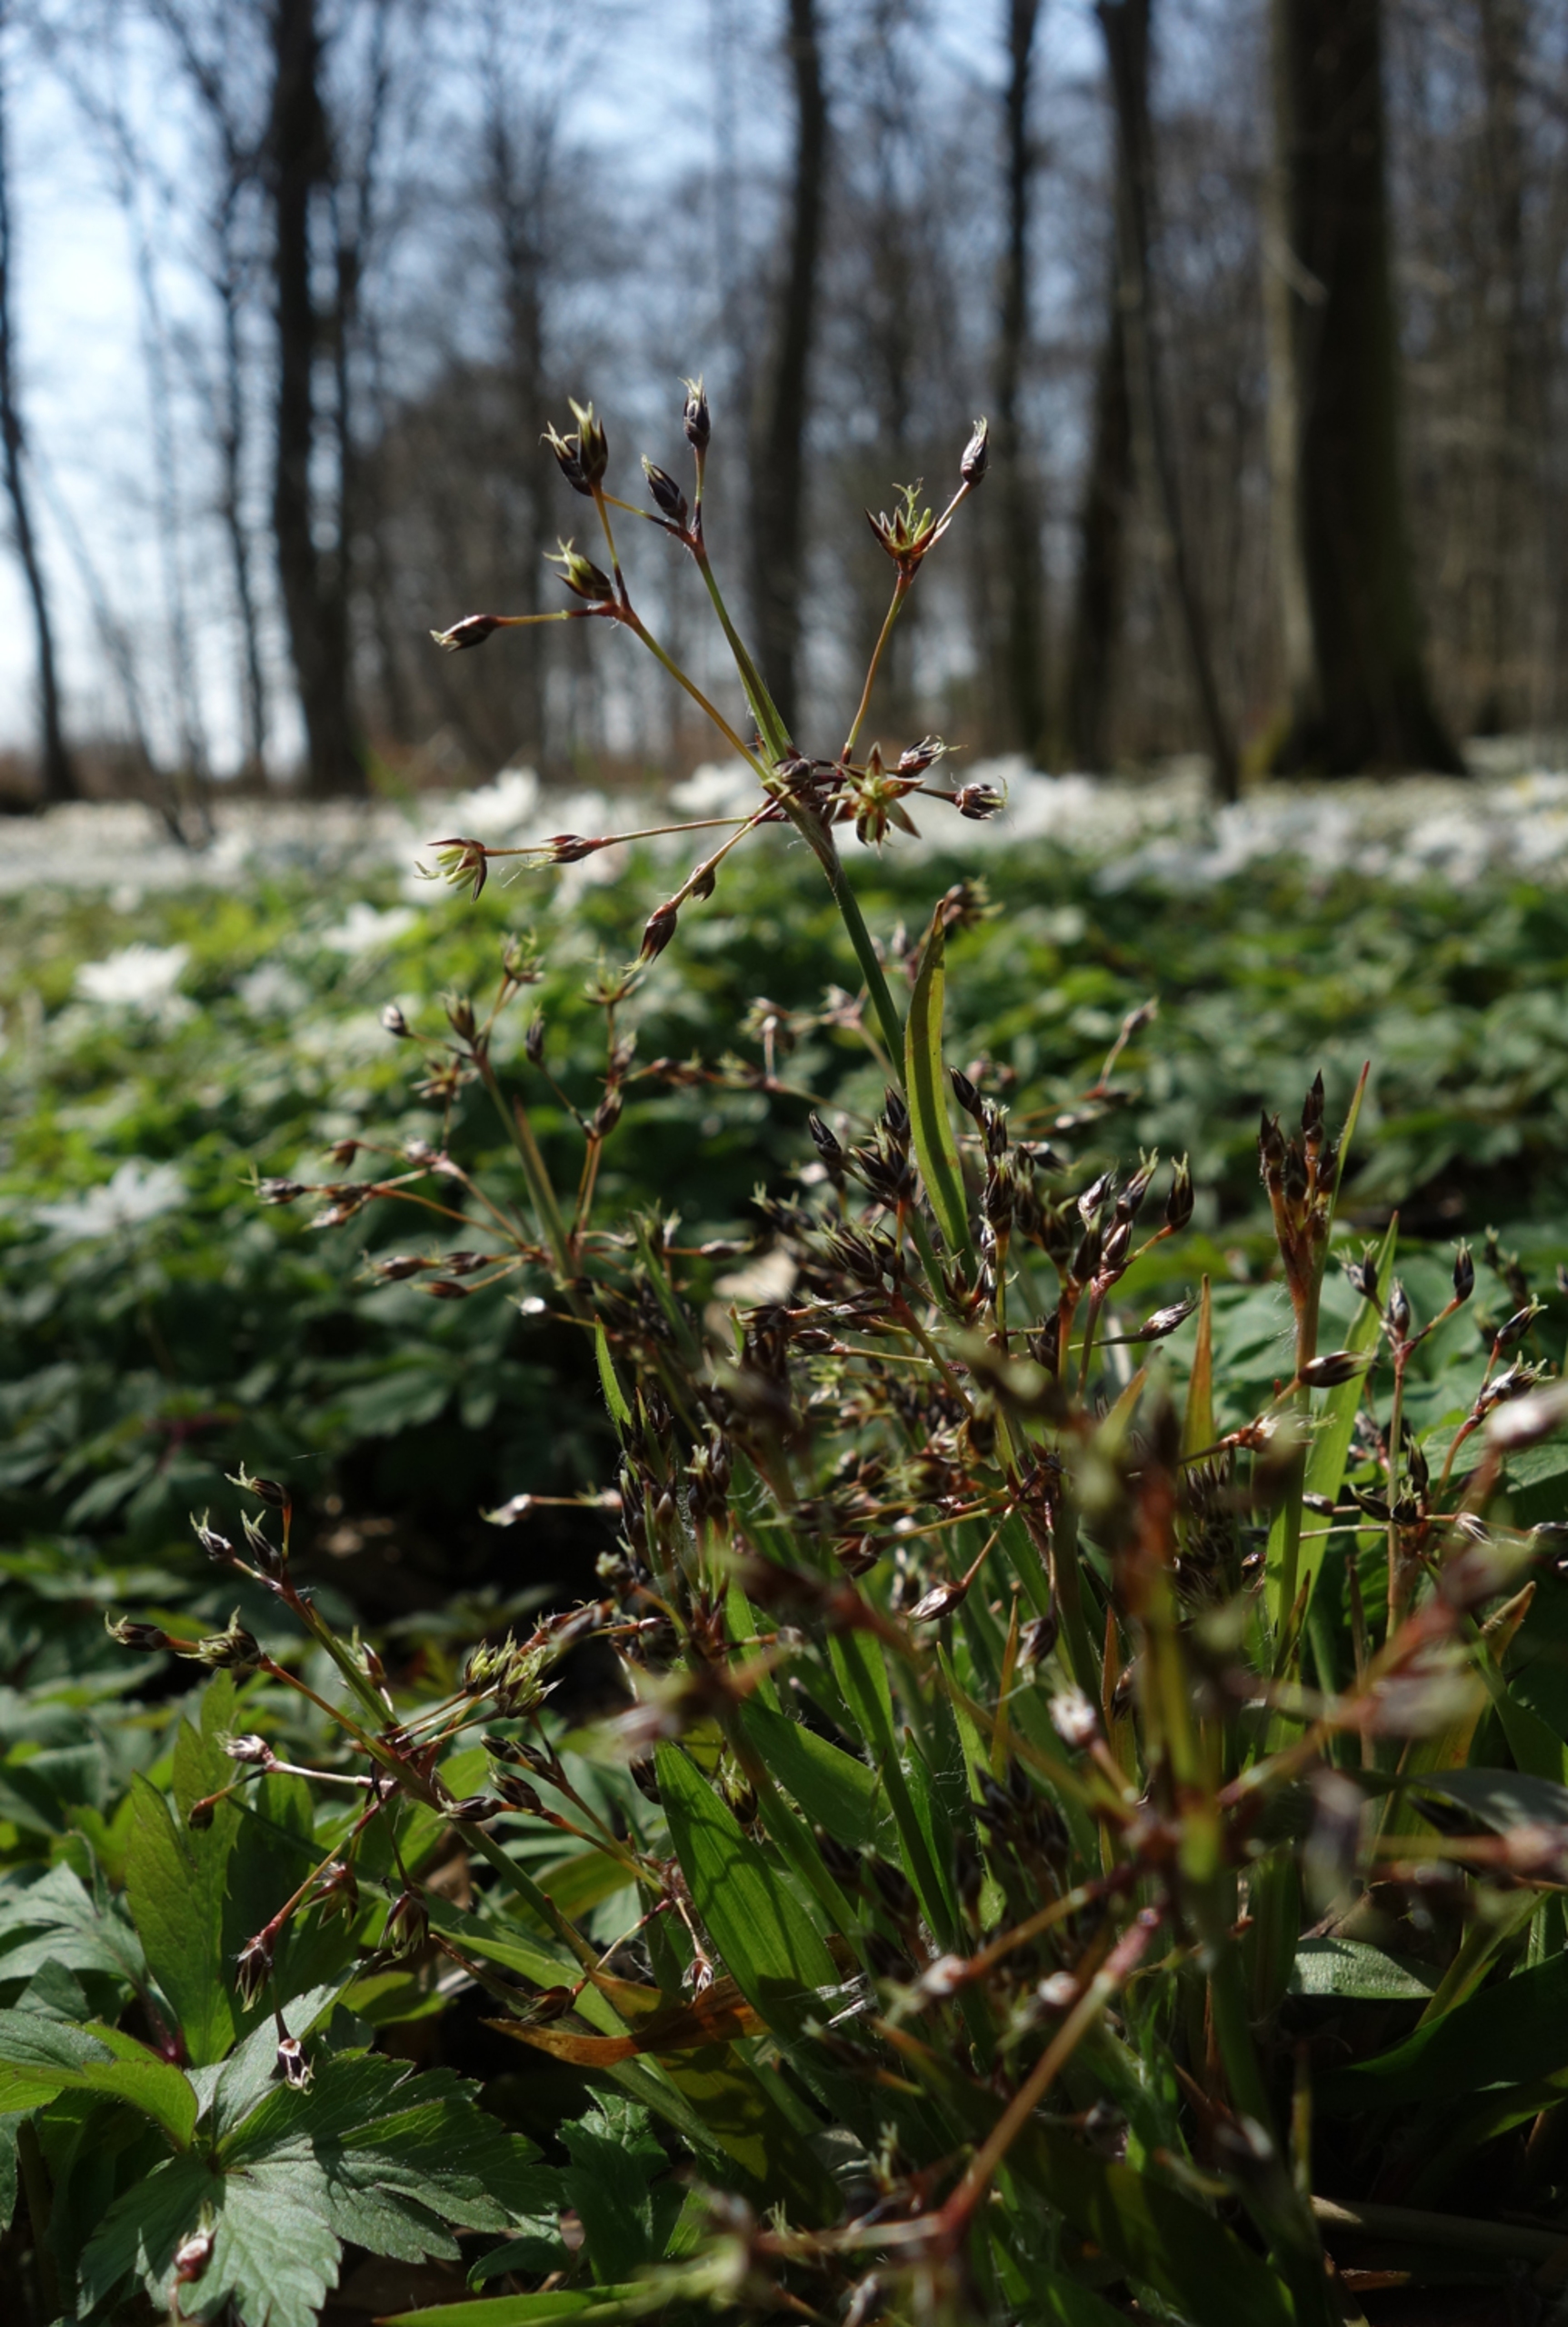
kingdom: Plantae
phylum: Tracheophyta
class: Liliopsida
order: Poales
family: Juncaceae
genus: Luzula
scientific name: Luzula pilosa
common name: Håret frytle
